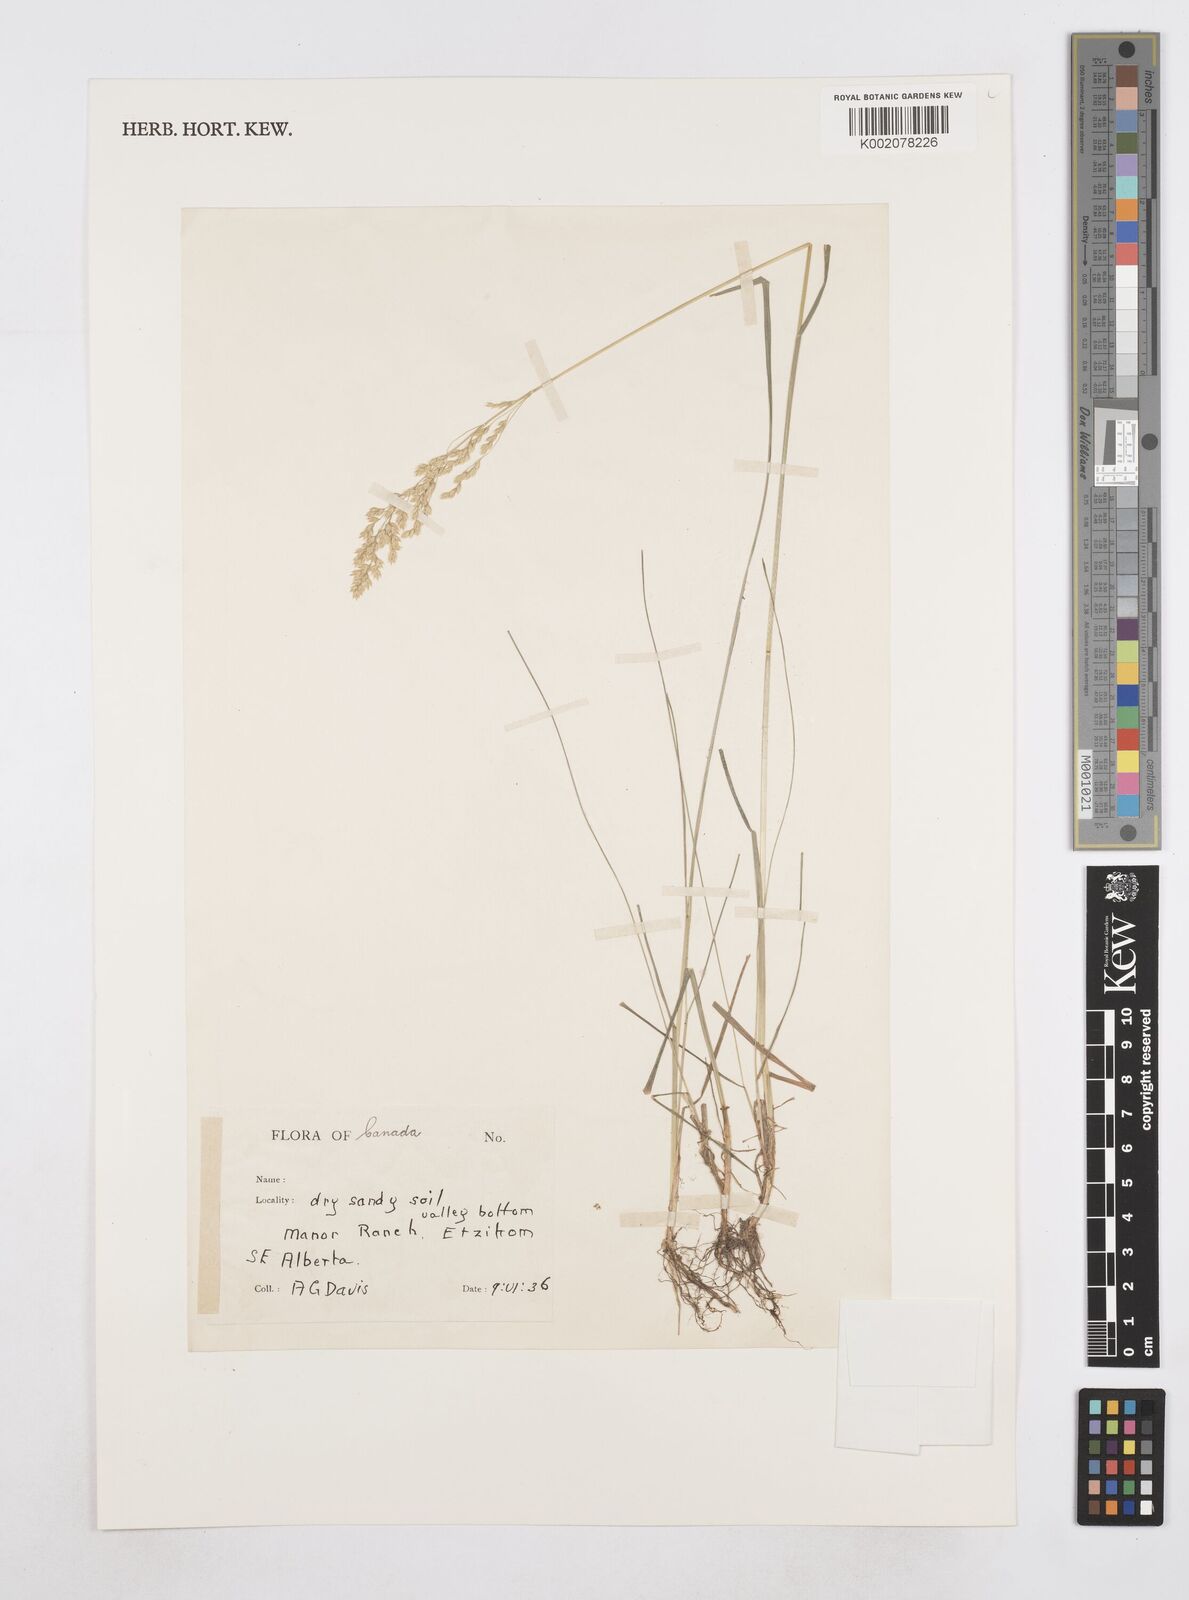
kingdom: Plantae
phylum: Tracheophyta
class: Liliopsida
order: Poales
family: Poaceae
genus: Poa
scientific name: Poa
